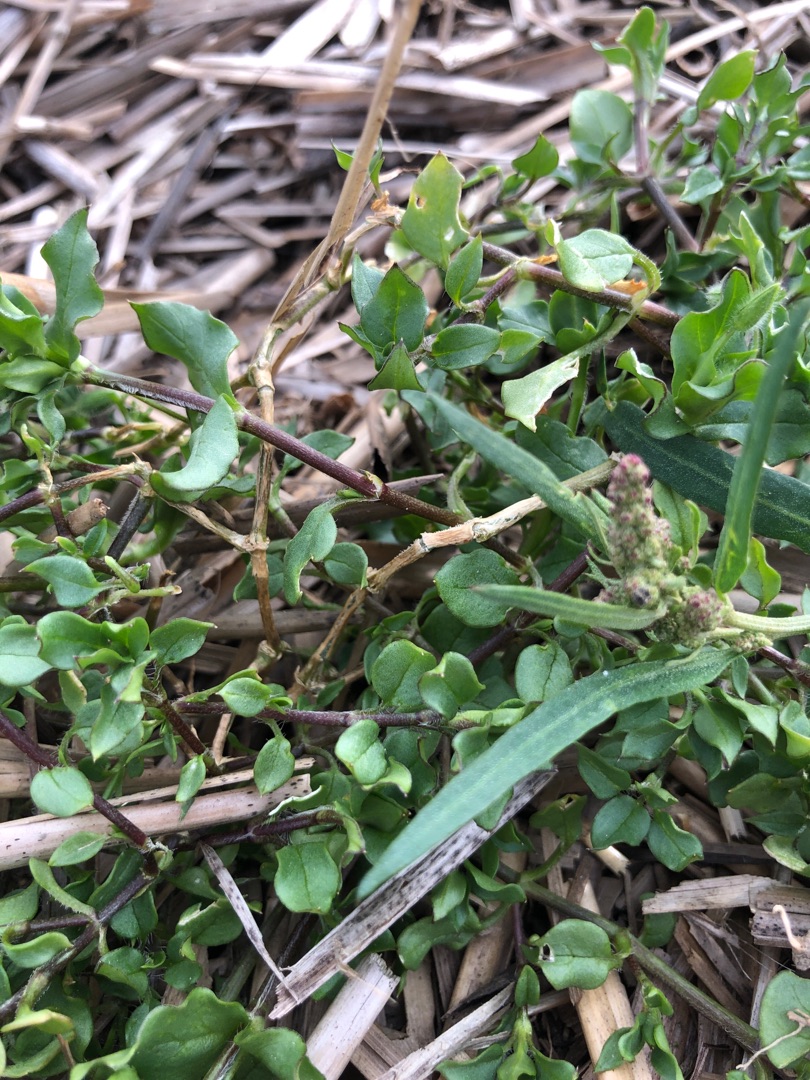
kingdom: Plantae
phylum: Tracheophyta
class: Magnoliopsida
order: Caryophyllales
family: Caryophyllaceae
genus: Stellaria
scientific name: Stellaria media
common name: Almindelig fuglegræs
